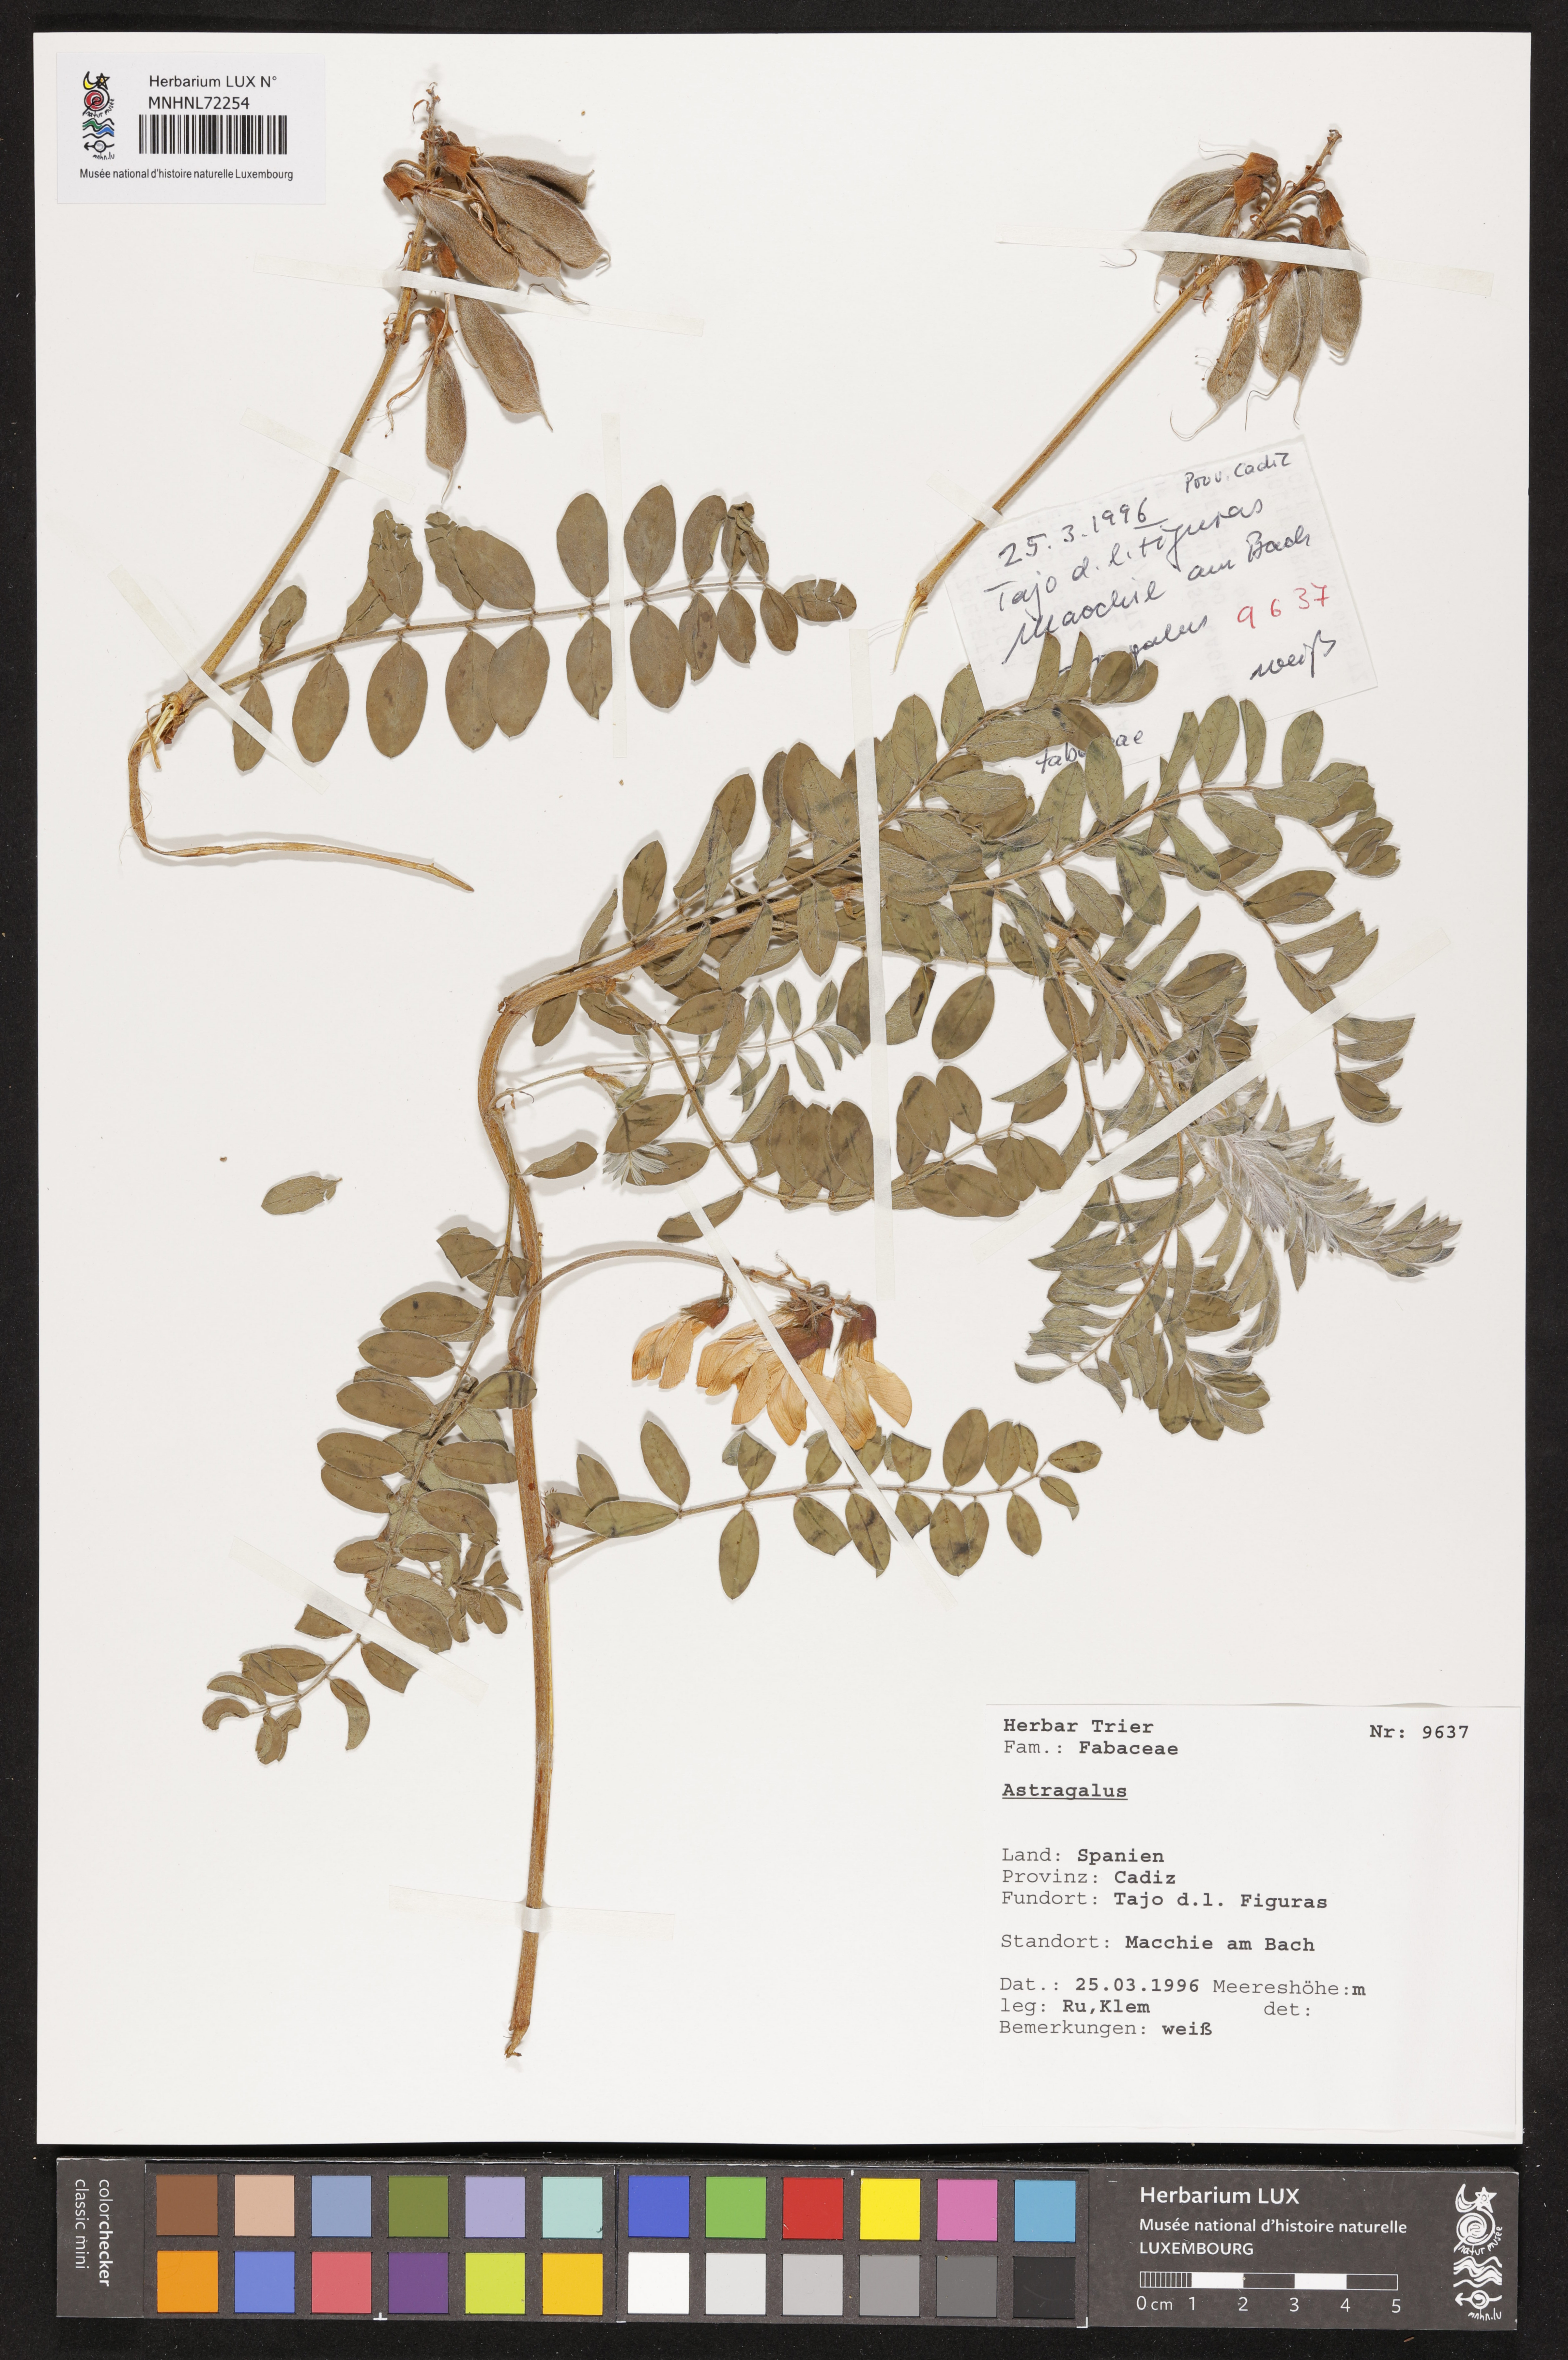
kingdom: Plantae
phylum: Tracheophyta
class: Magnoliopsida
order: Fabales
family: Fabaceae
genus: Astragalus
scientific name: Astragalus
